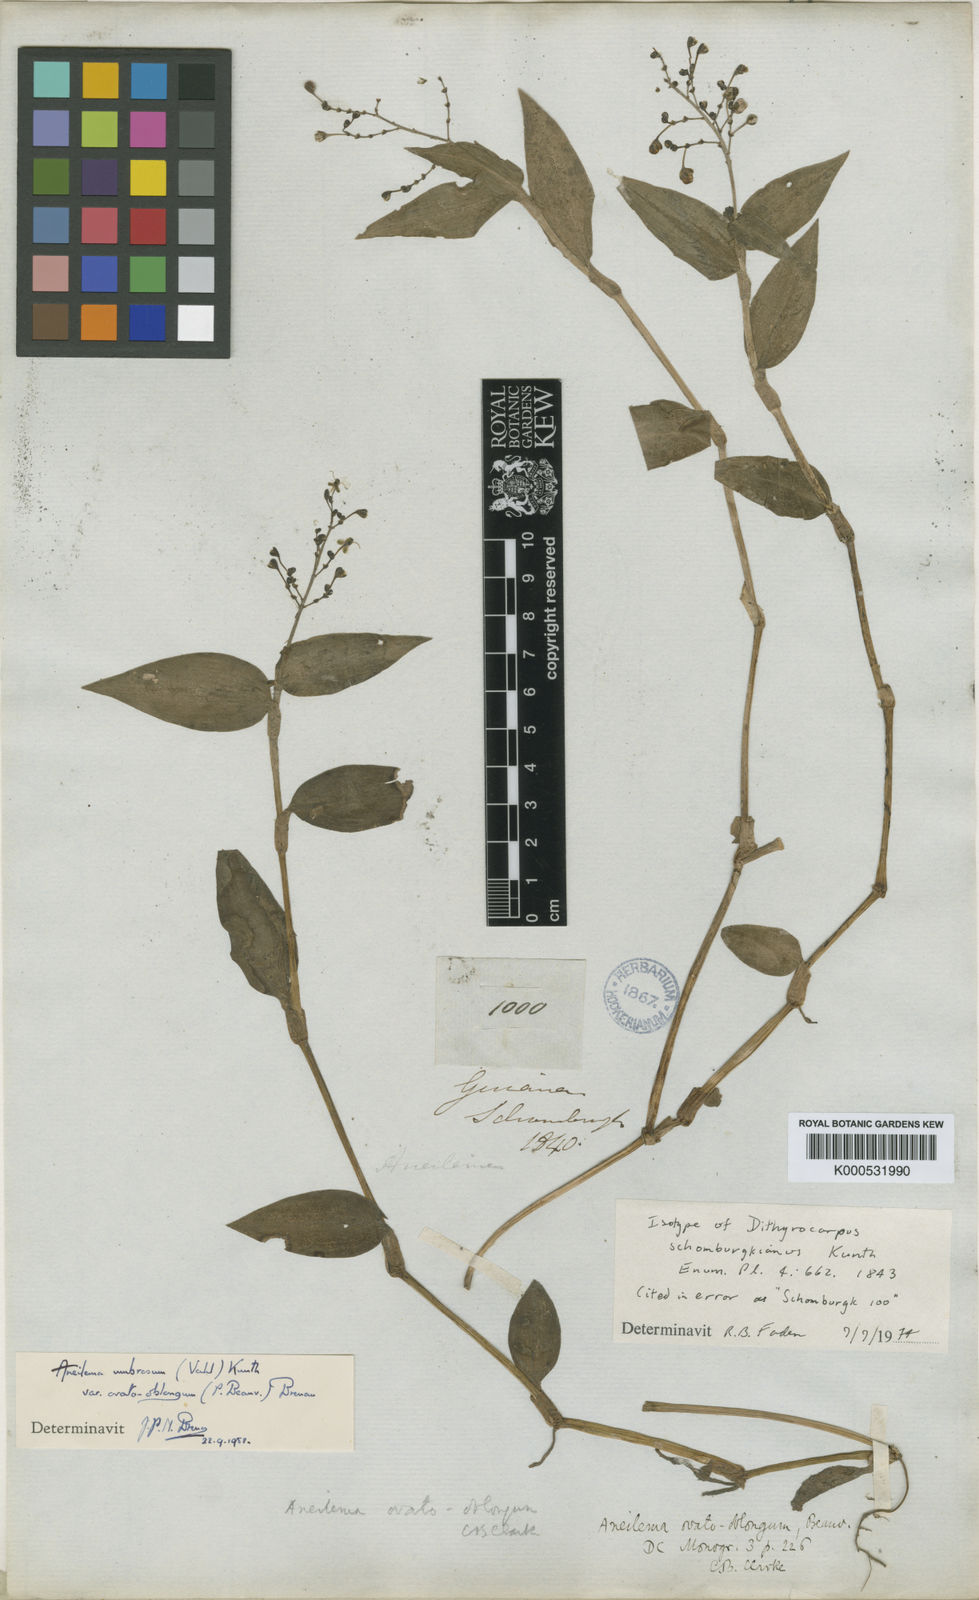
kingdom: Plantae
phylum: Tracheophyta
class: Liliopsida
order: Commelinales
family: Commelinaceae
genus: Aneilema
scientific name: Aneilema umbrosum
